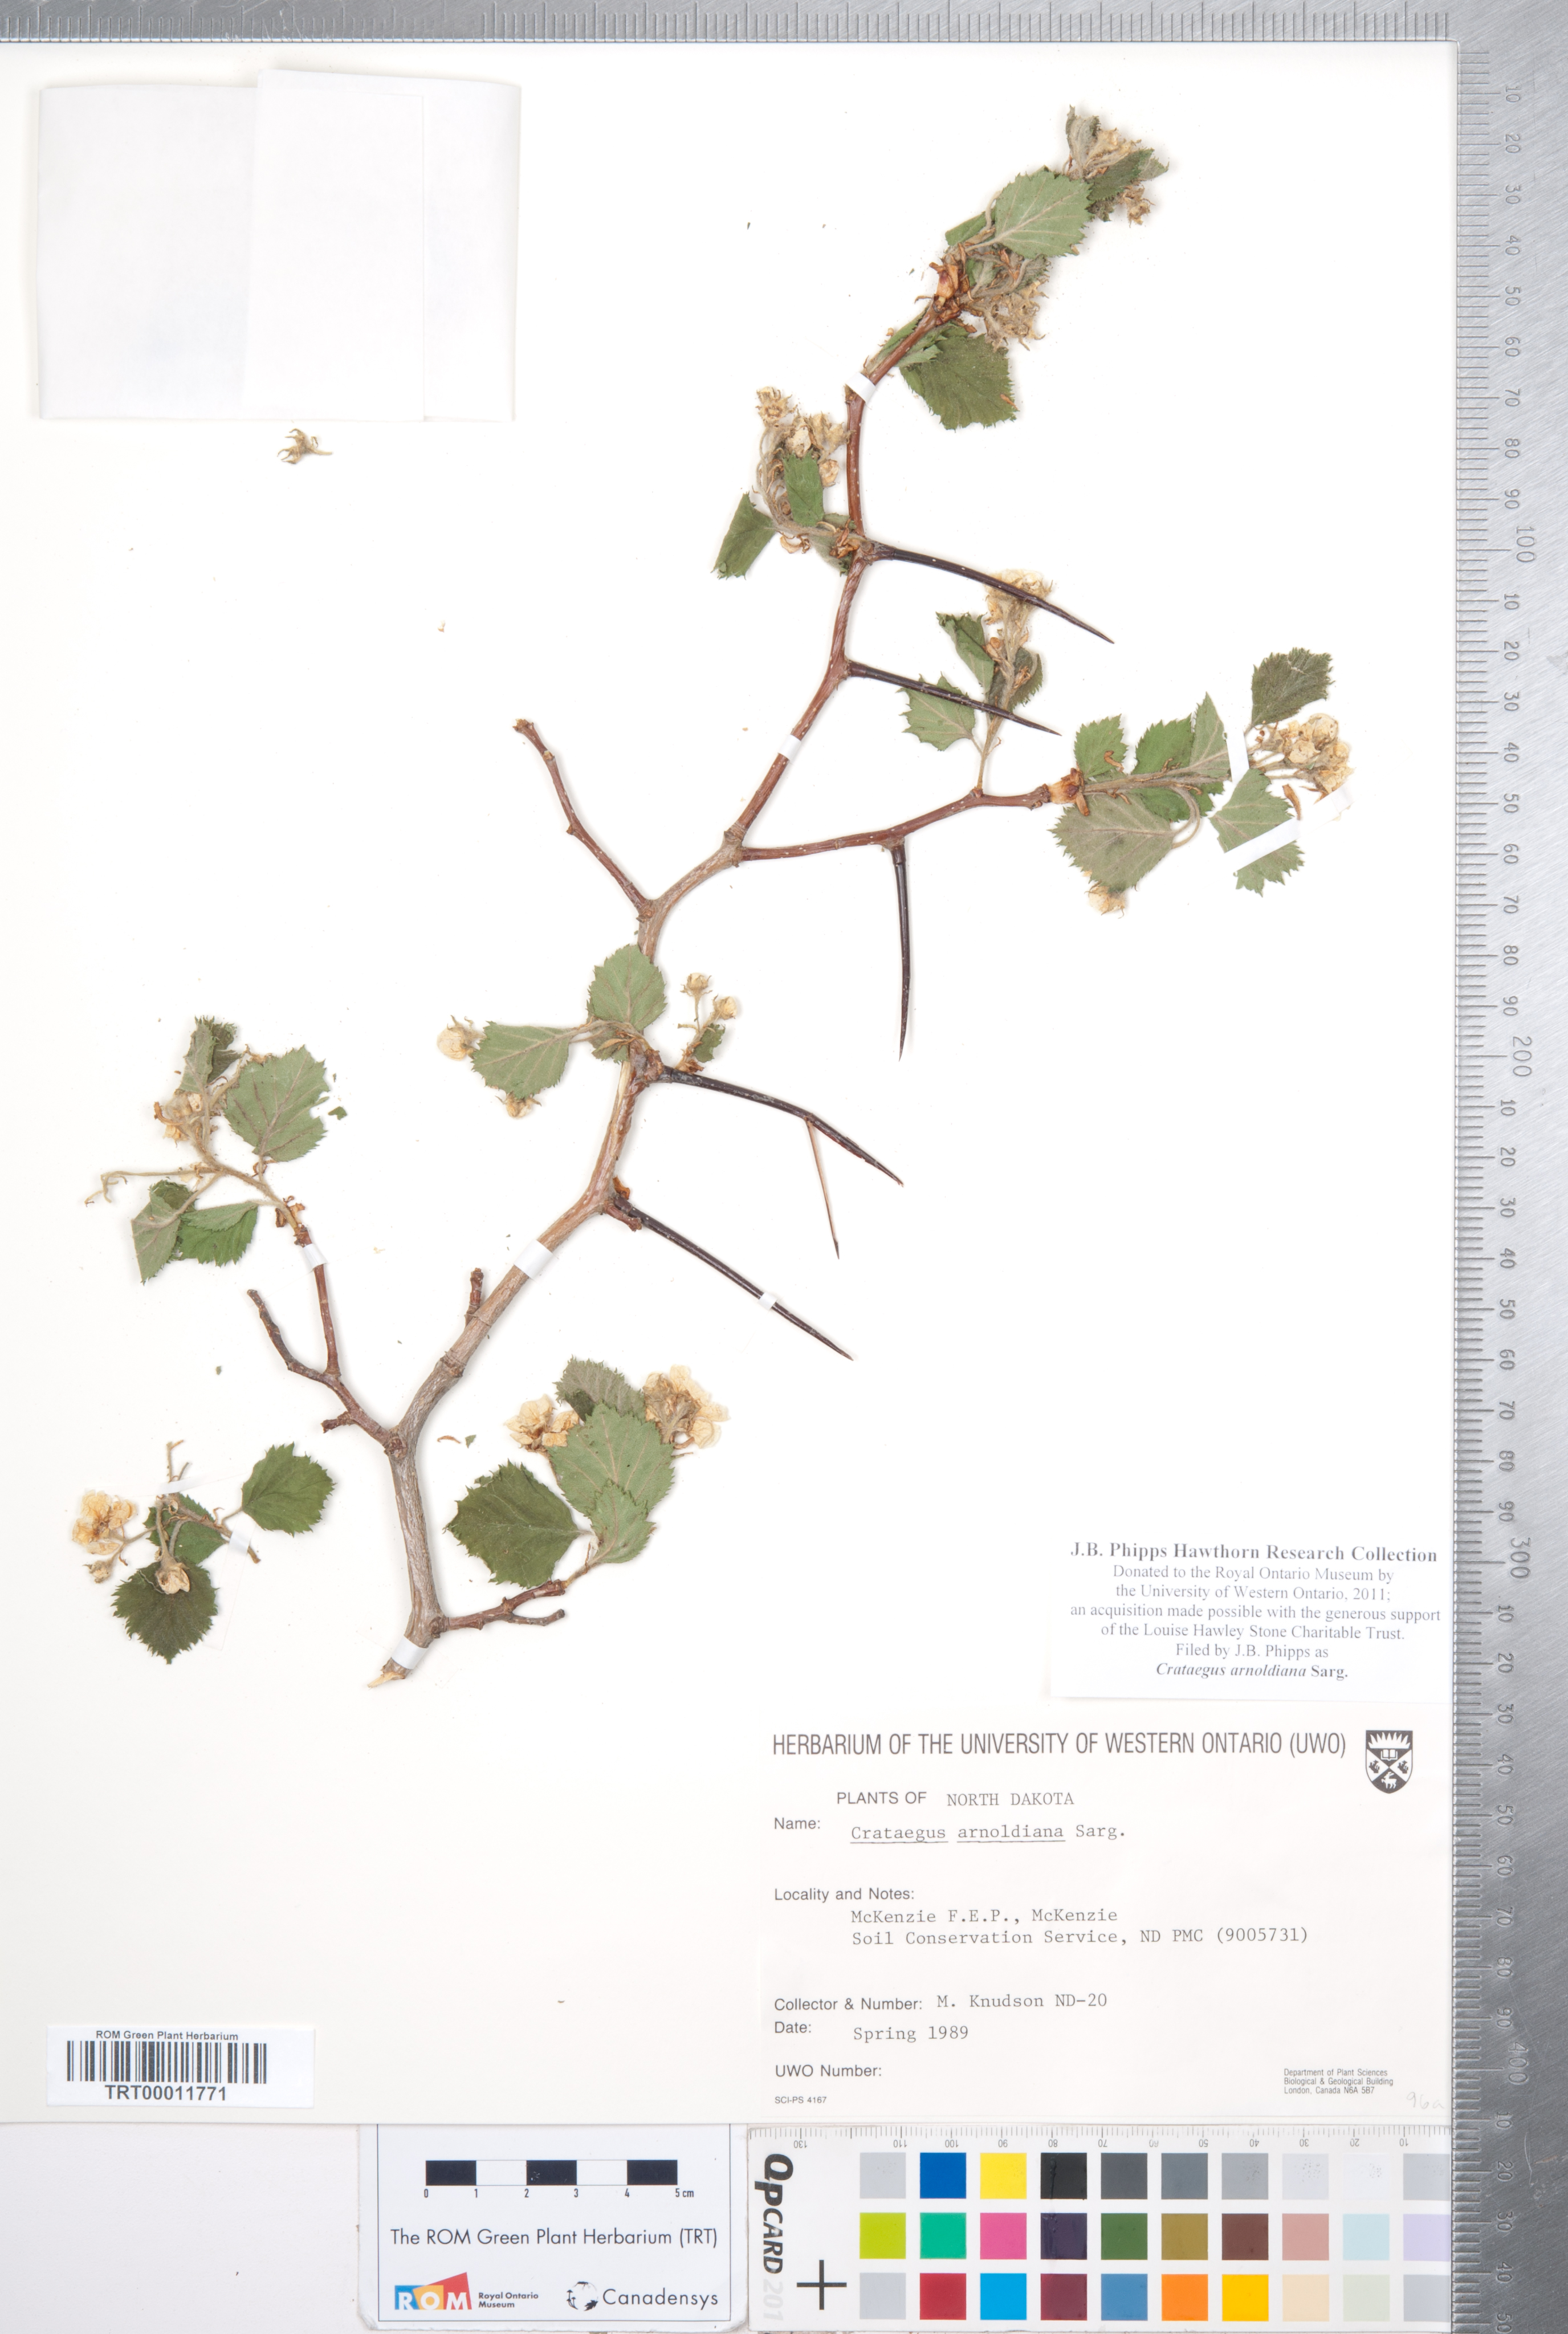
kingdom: Plantae
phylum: Tracheophyta
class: Magnoliopsida
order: Rosales
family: Rosaceae
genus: Crataegus
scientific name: Crataegus holmesiana
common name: Holmes' hawthorn
